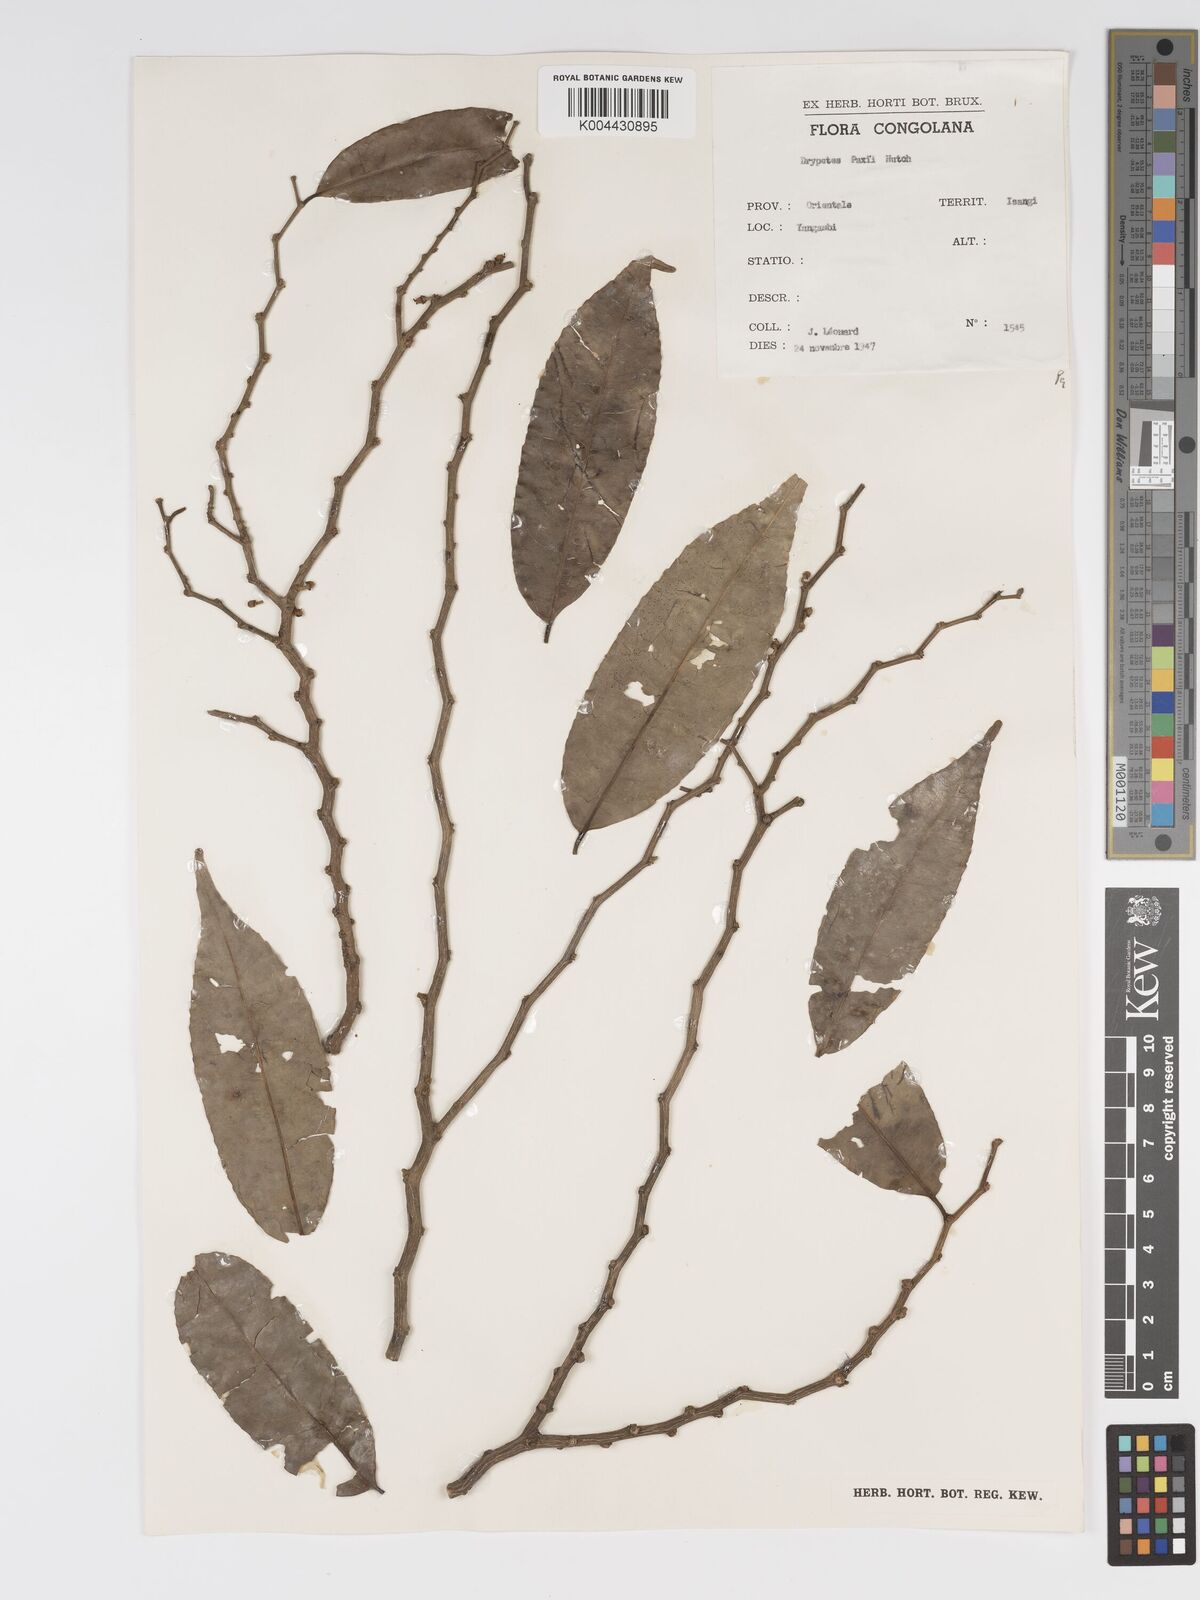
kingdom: Plantae
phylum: Tracheophyta
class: Magnoliopsida
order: Malpighiales
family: Putranjivaceae
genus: Drypetes
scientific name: Drypetes paxii
